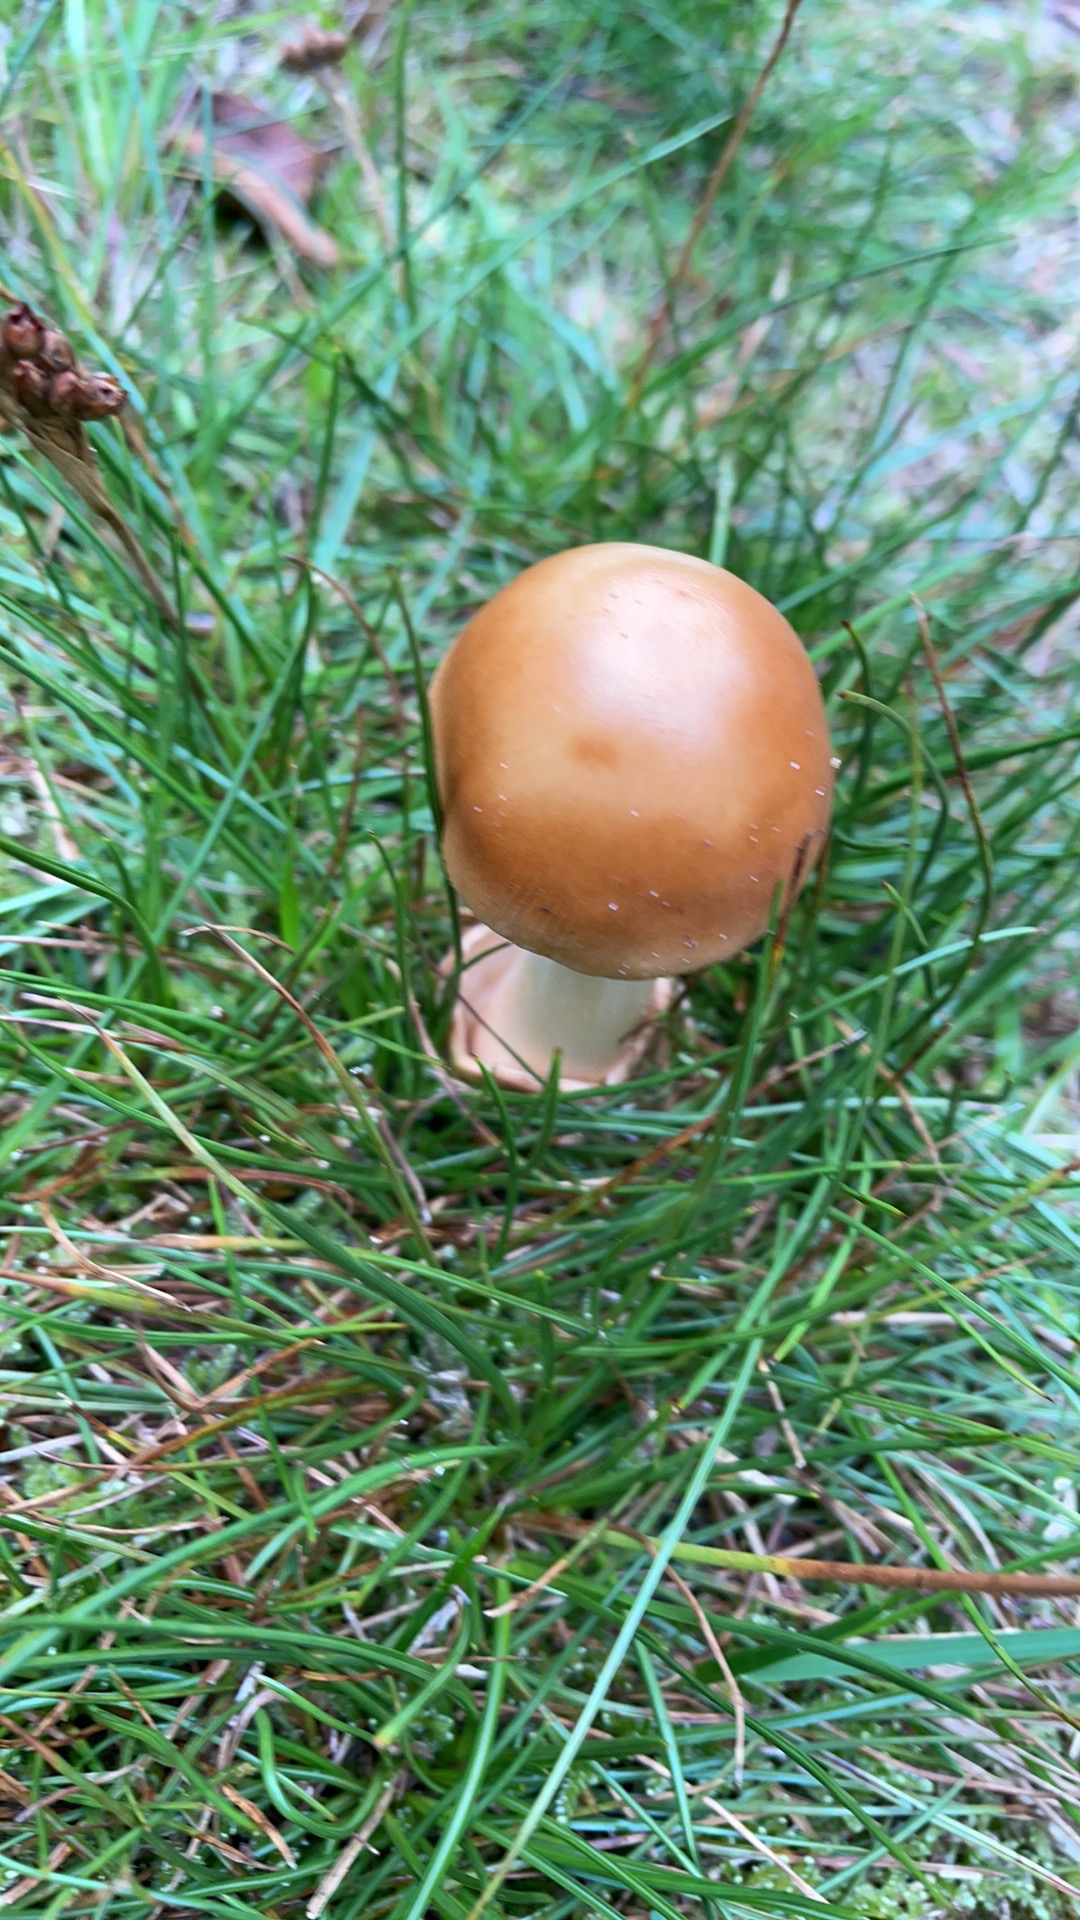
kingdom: Fungi
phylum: Basidiomycota
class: Agaricomycetes
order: Agaricales
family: Amanitaceae
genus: Amanita
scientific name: Amanita fulva
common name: brun kam-fluesvamp
